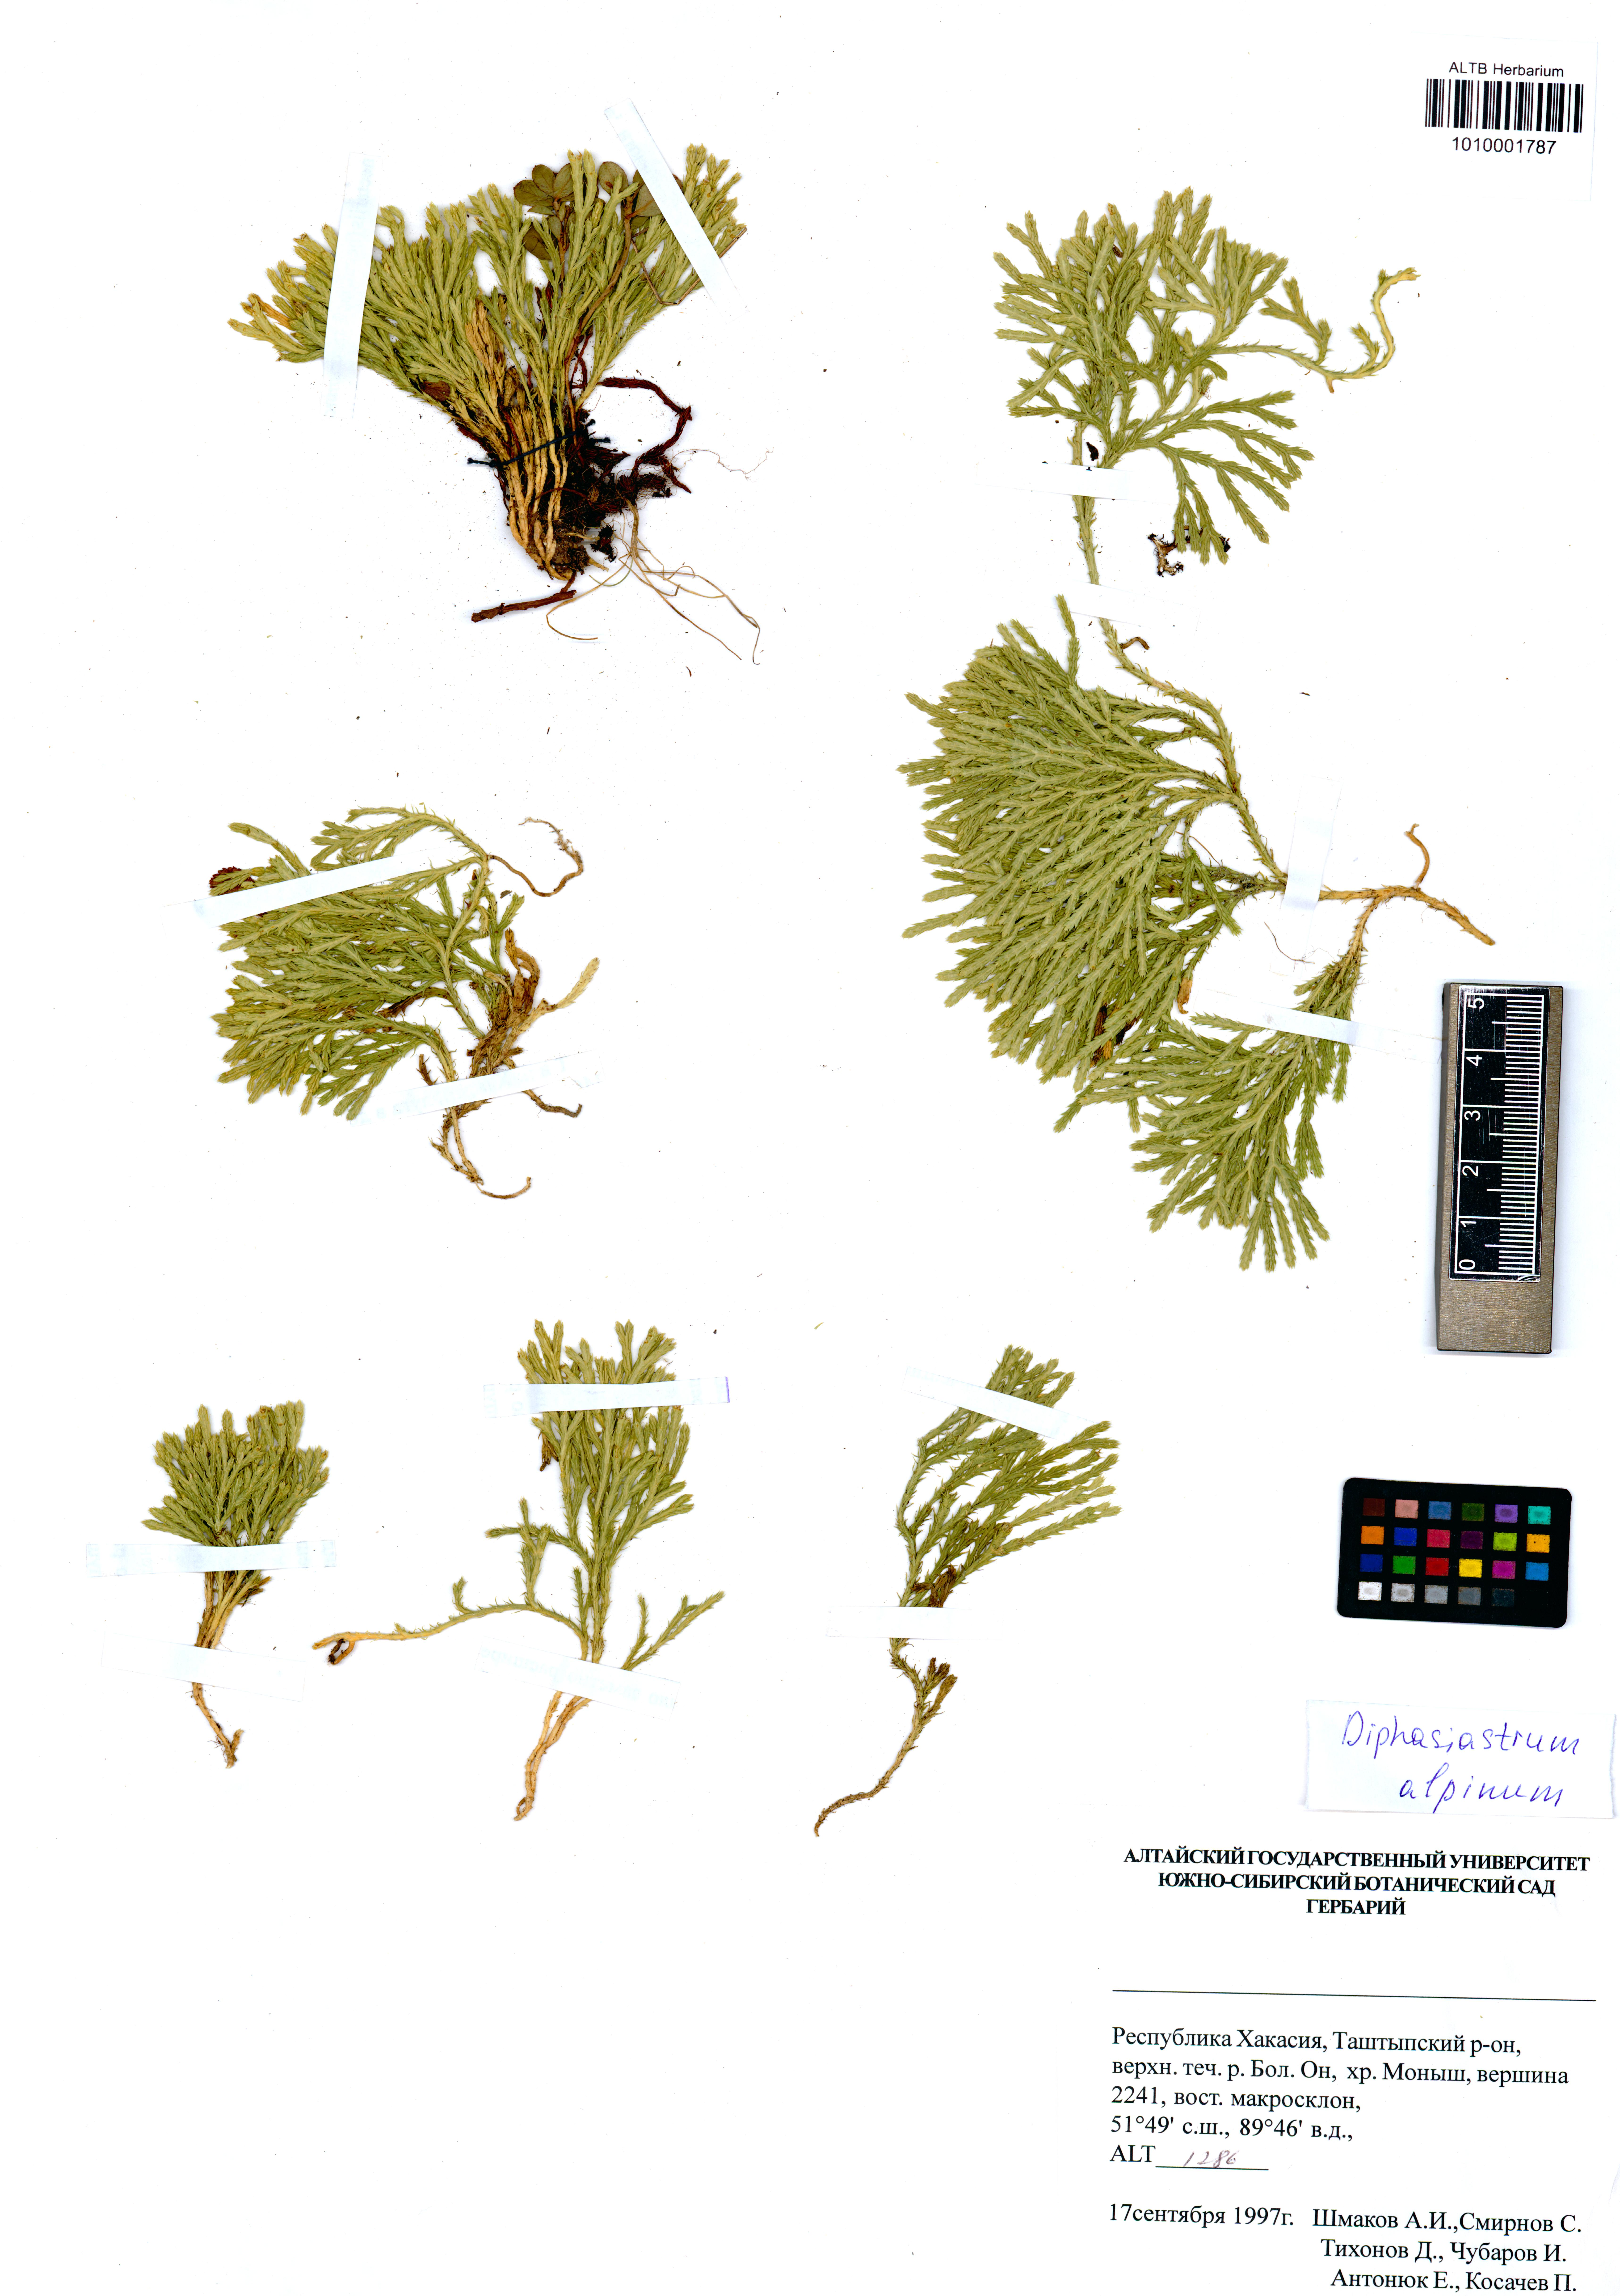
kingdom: Plantae
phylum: Tracheophyta
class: Lycopodiopsida
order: Lycopodiales
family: Lycopodiaceae
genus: Diphasiastrum
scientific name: Diphasiastrum alpinum
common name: Alpine clubmoss
